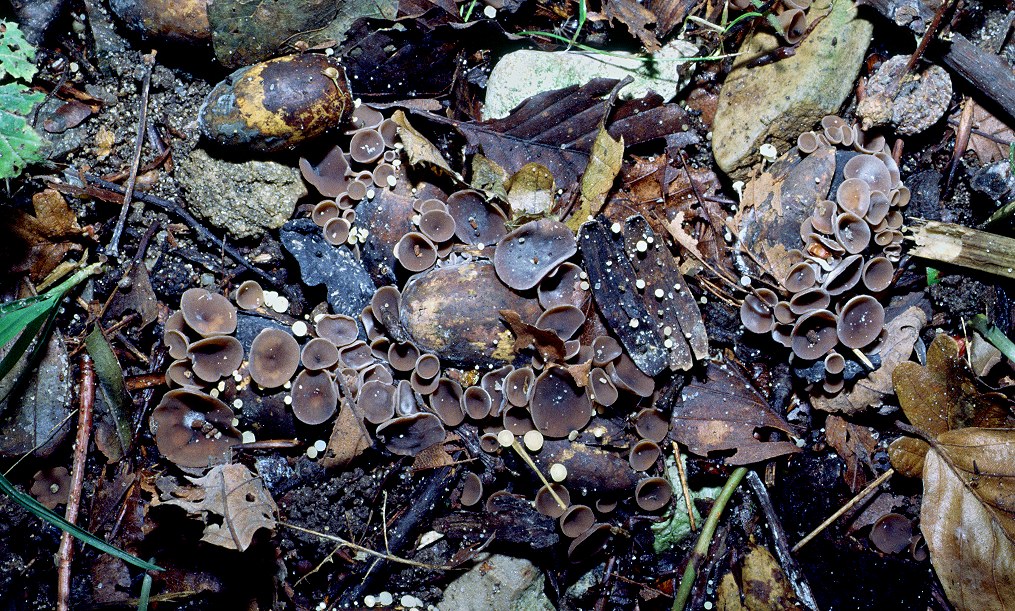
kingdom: Fungi
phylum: Ascomycota
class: Leotiomycetes
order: Helotiales
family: Sclerotiniaceae
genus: Ciboria
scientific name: Ciboria batschiana
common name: agern-knoldskive
